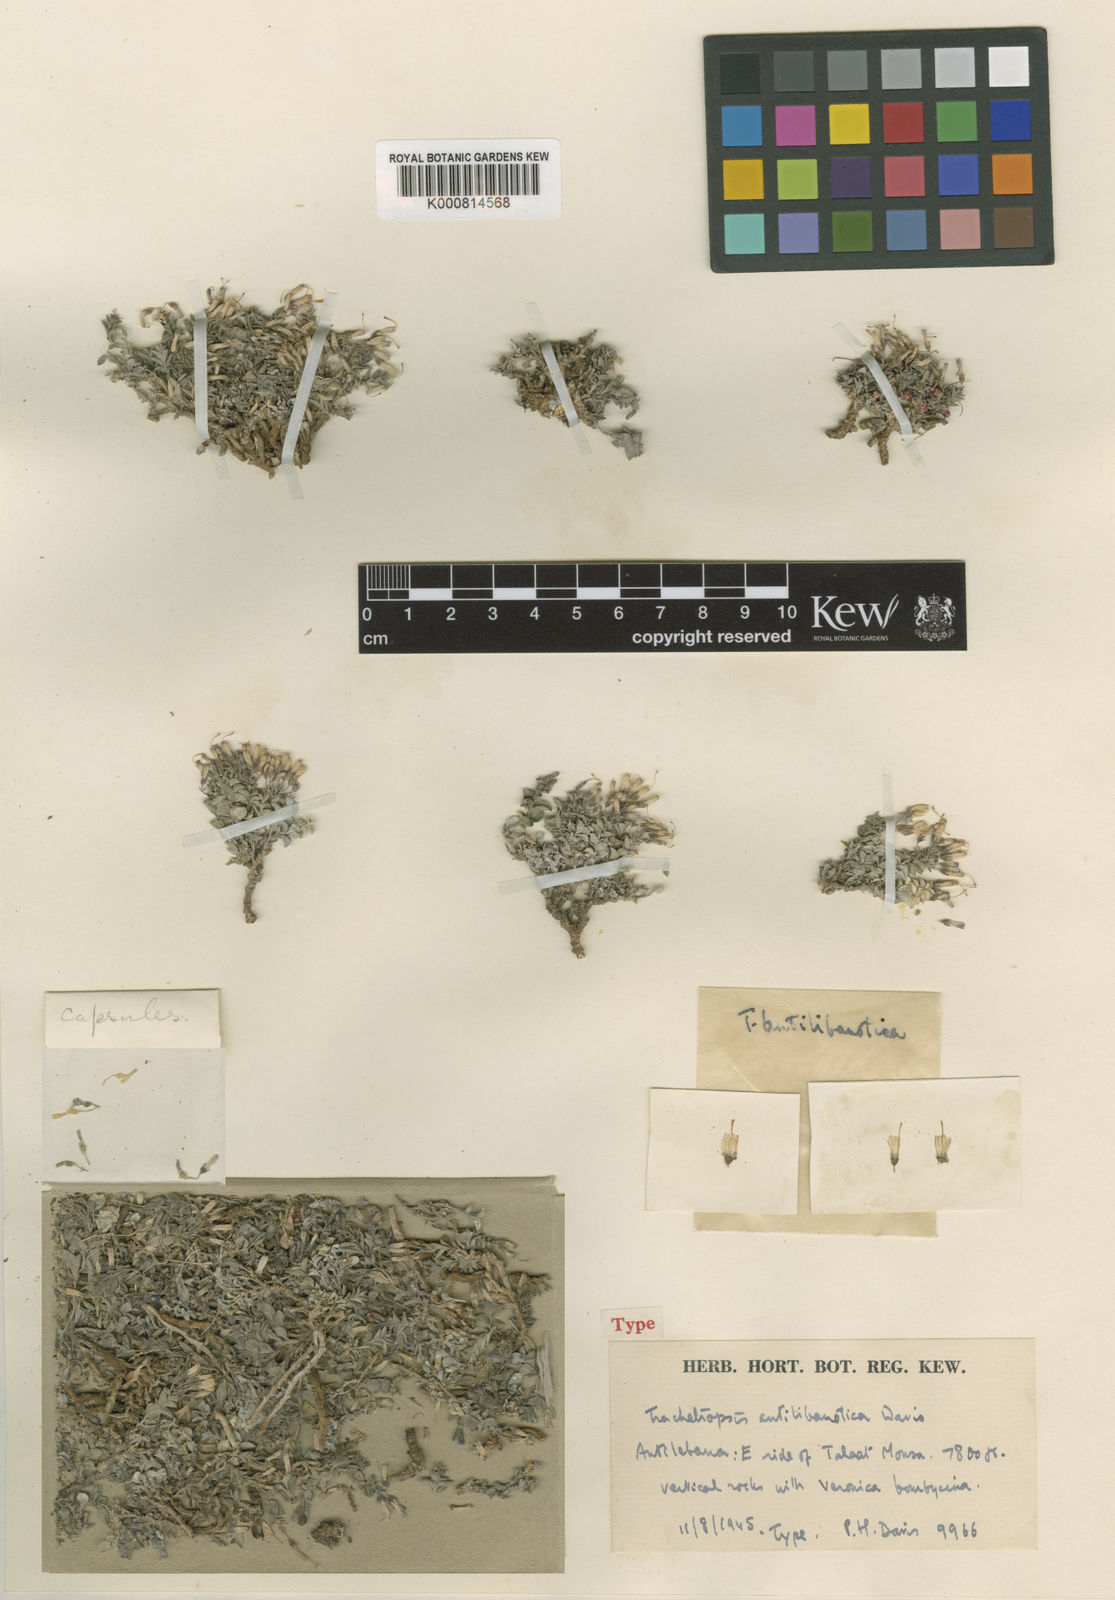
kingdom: Plantae
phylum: Tracheophyta
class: Magnoliopsida
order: Asterales
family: Campanulaceae
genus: Campanula
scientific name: Campanula antilibanotica
